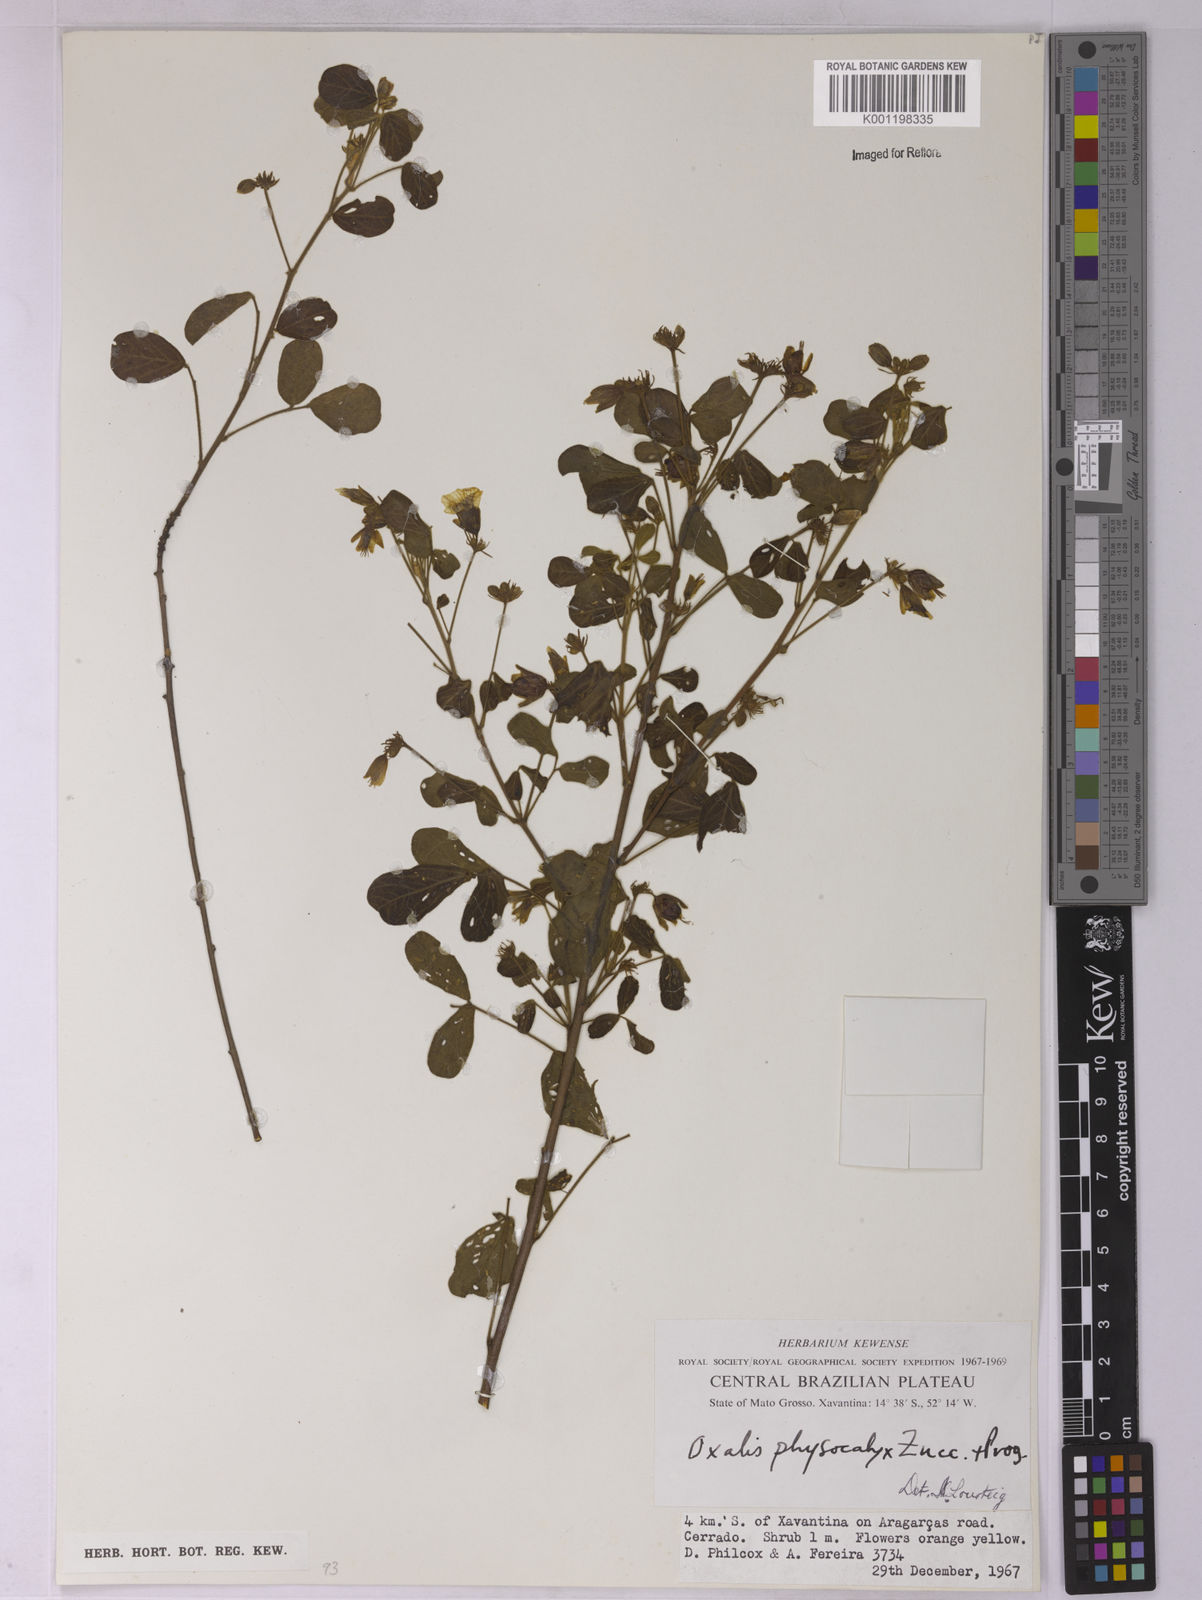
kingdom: Plantae
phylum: Tracheophyta
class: Magnoliopsida
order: Oxalidales
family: Oxalidaceae
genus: Oxalis
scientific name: Oxalis physocalyx
